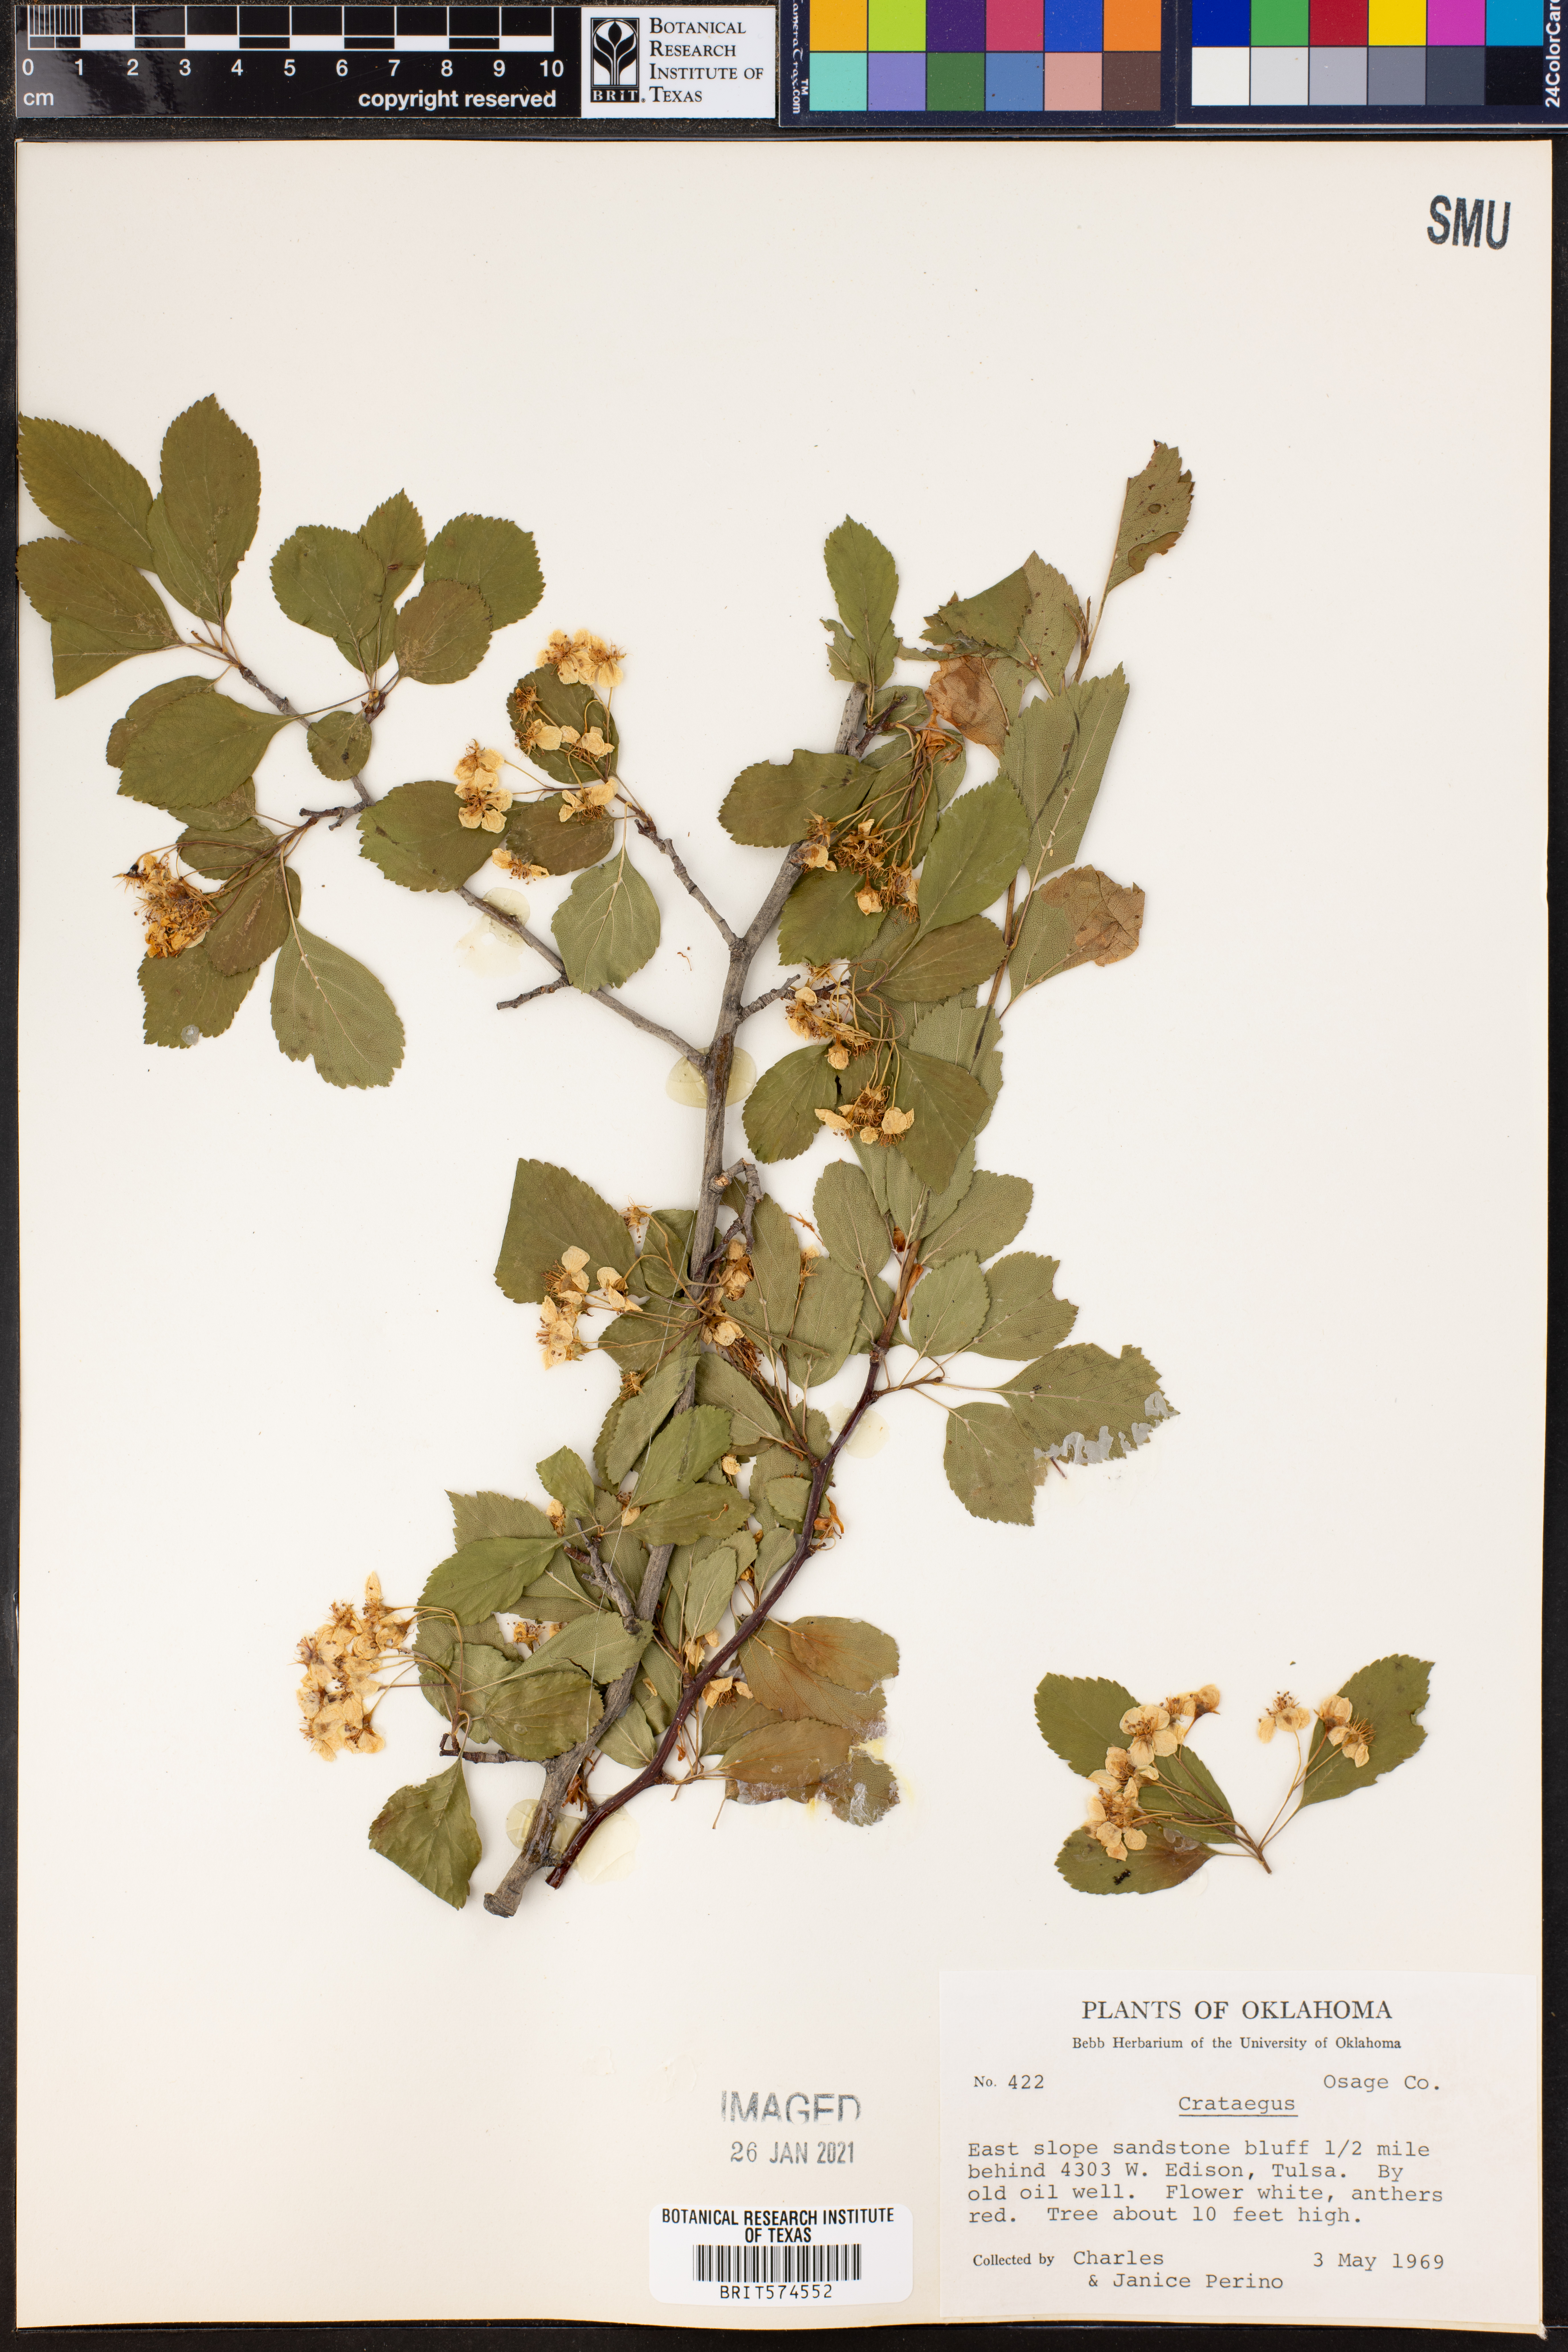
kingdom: Plantae
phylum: Tracheophyta
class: Magnoliopsida
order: Rosales
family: Rosaceae
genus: Crataegus
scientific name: Crataegus
